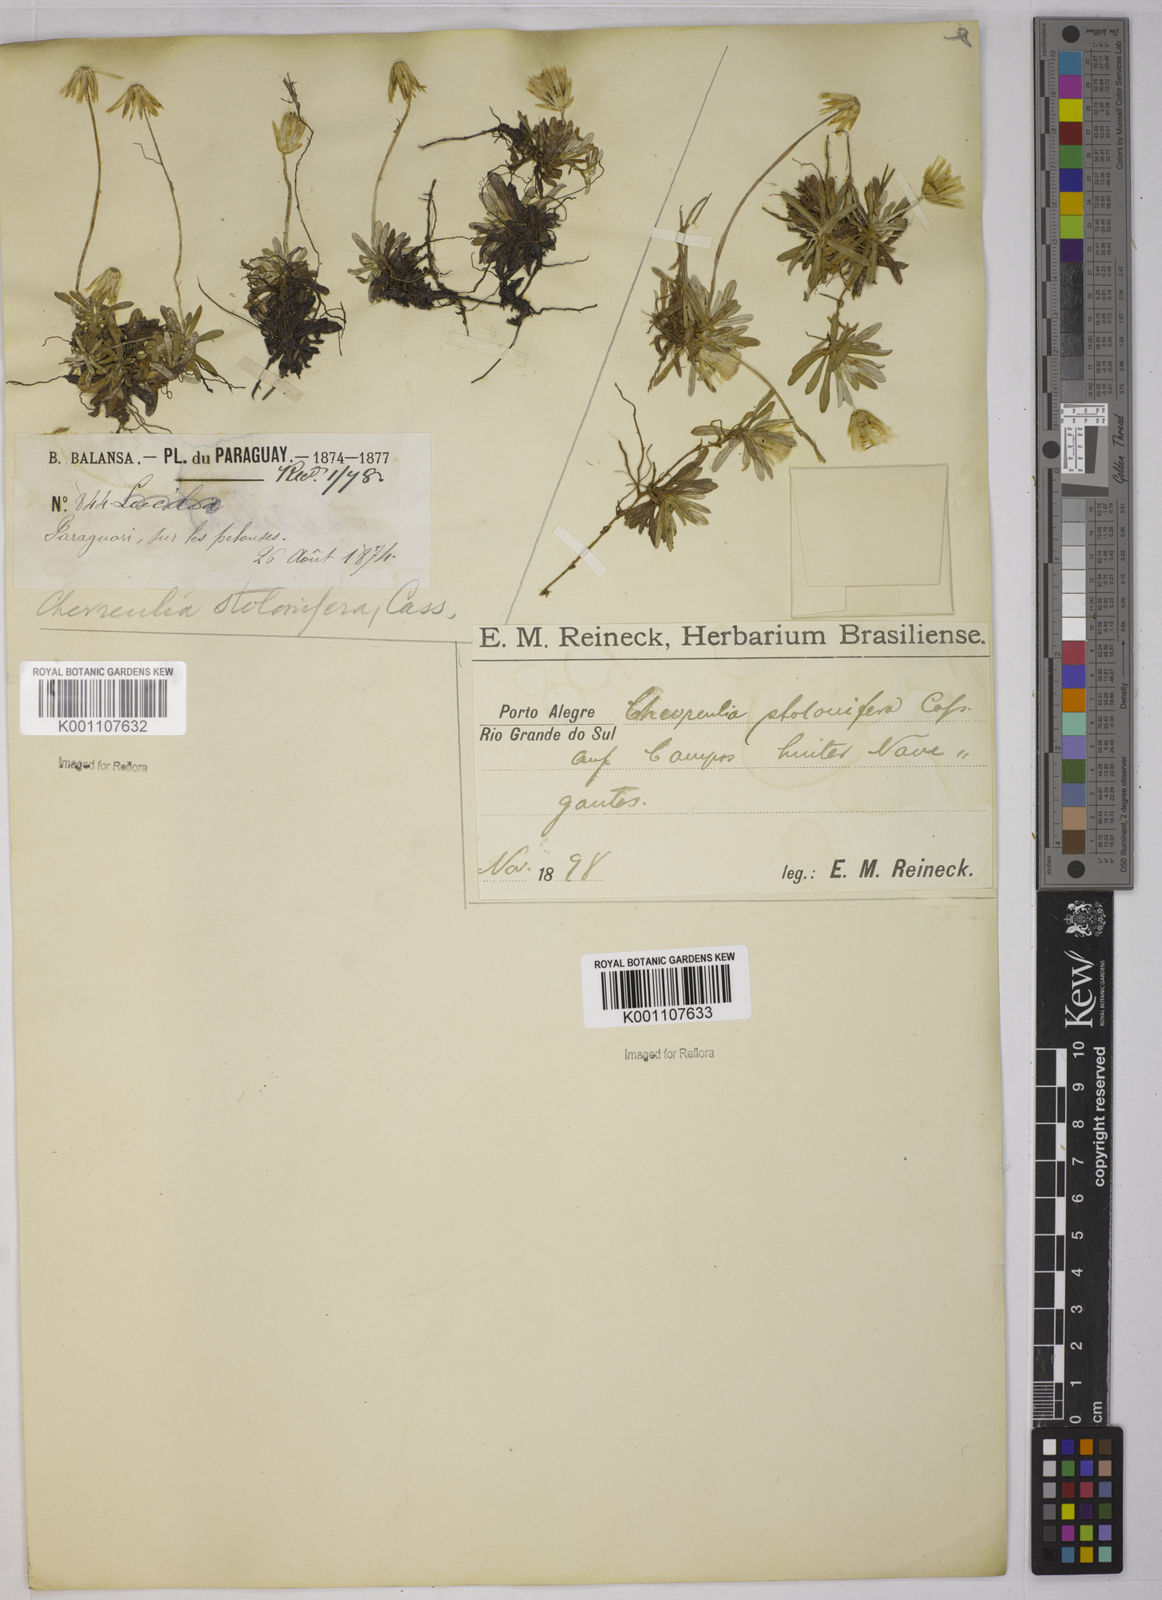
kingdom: Plantae
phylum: Tracheophyta
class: Magnoliopsida
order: Asterales
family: Asteraceae
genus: Chevreulia
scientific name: Chevreulia sarmentosa
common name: Sunflower
